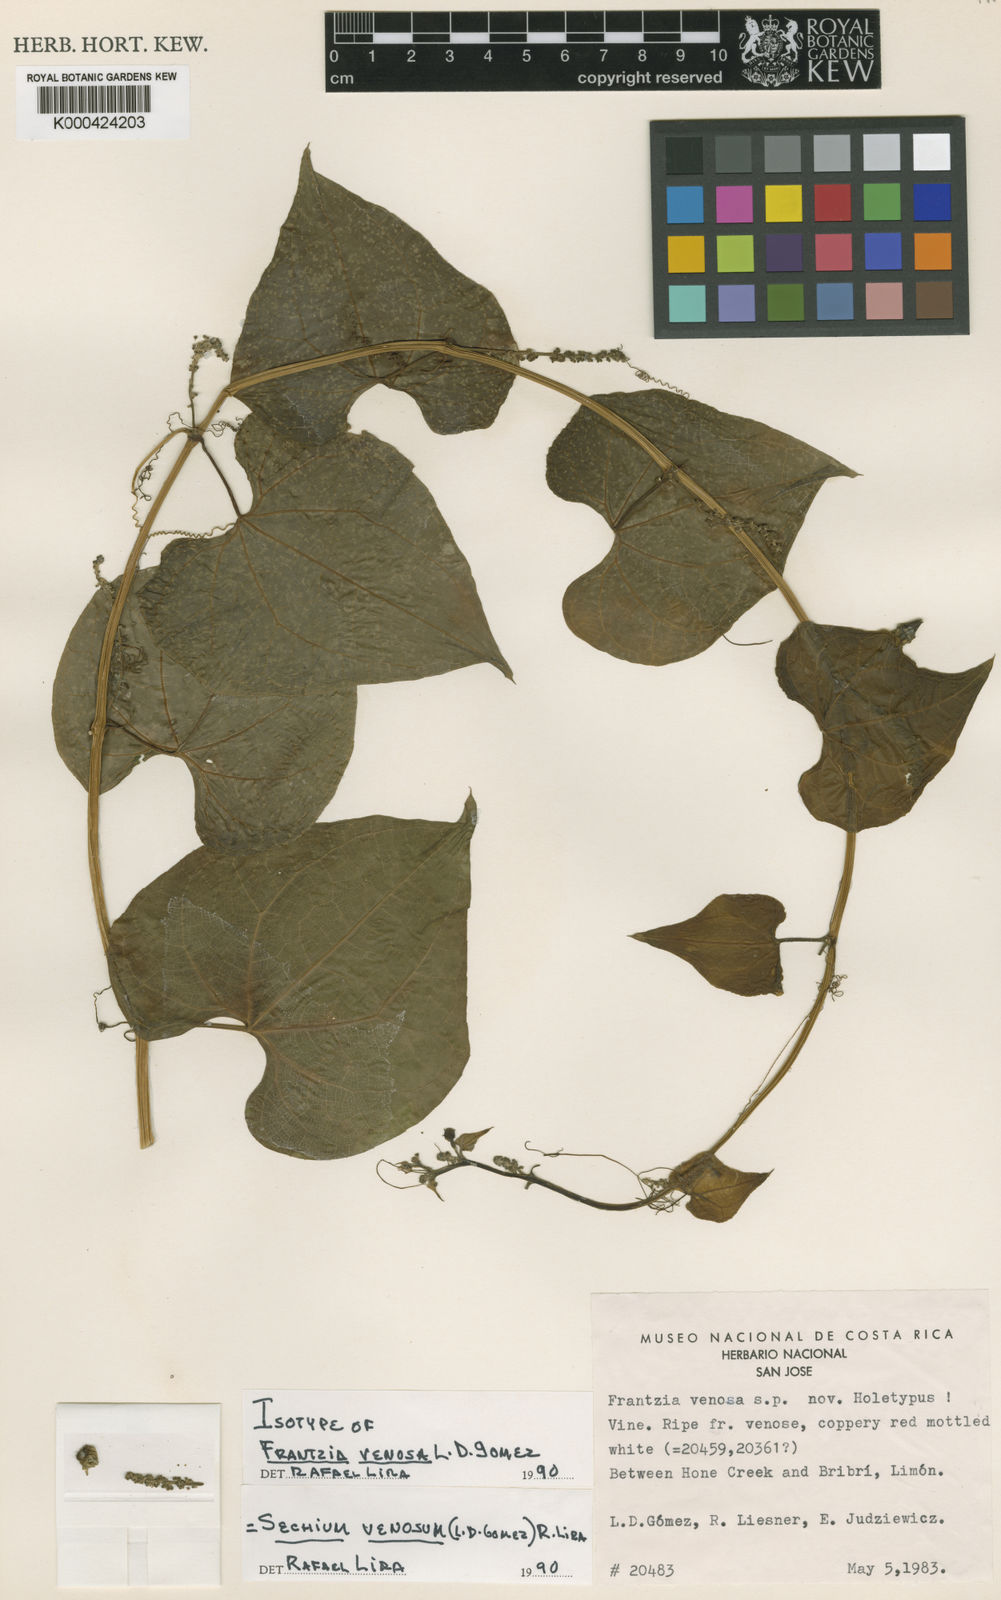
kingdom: Plantae
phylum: Tracheophyta
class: Magnoliopsida
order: Cucurbitales
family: Cucurbitaceae
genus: Sechium
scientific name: Sechium
